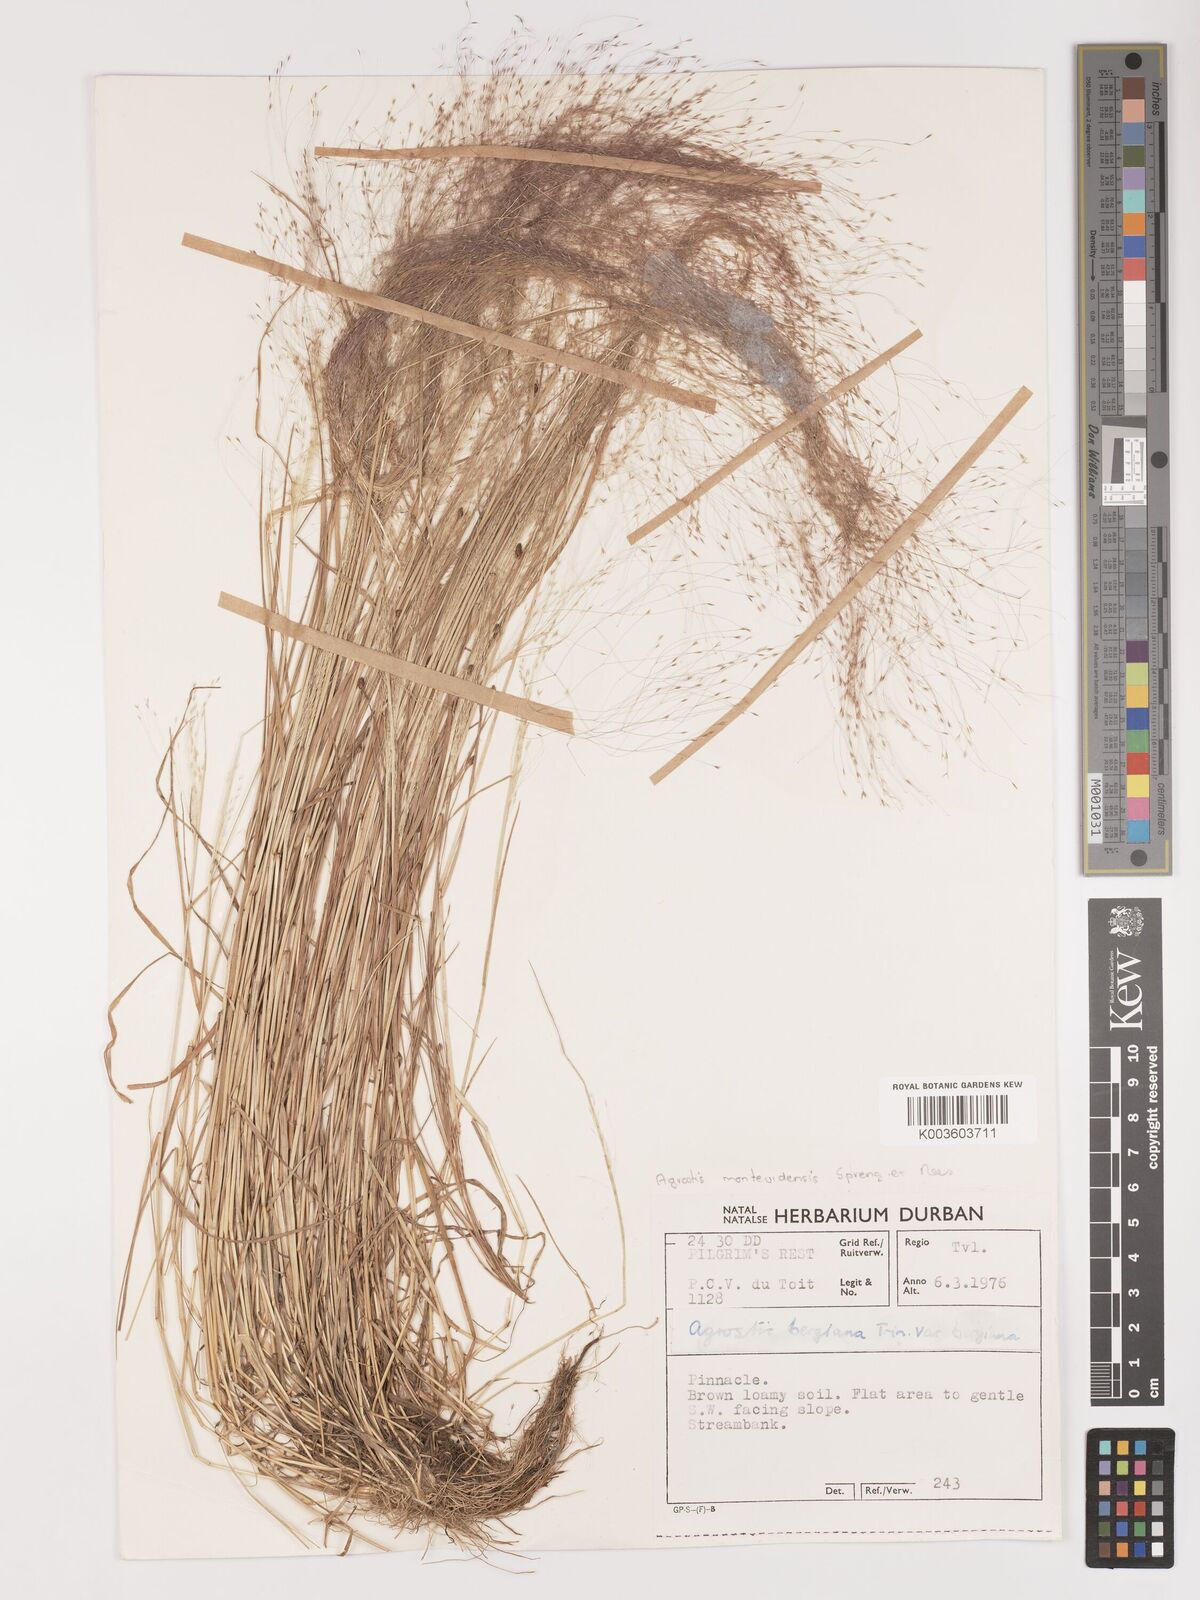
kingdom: Plantae
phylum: Tracheophyta
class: Liliopsida
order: Poales
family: Poaceae
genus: Agrostis
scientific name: Agrostis bergiana
